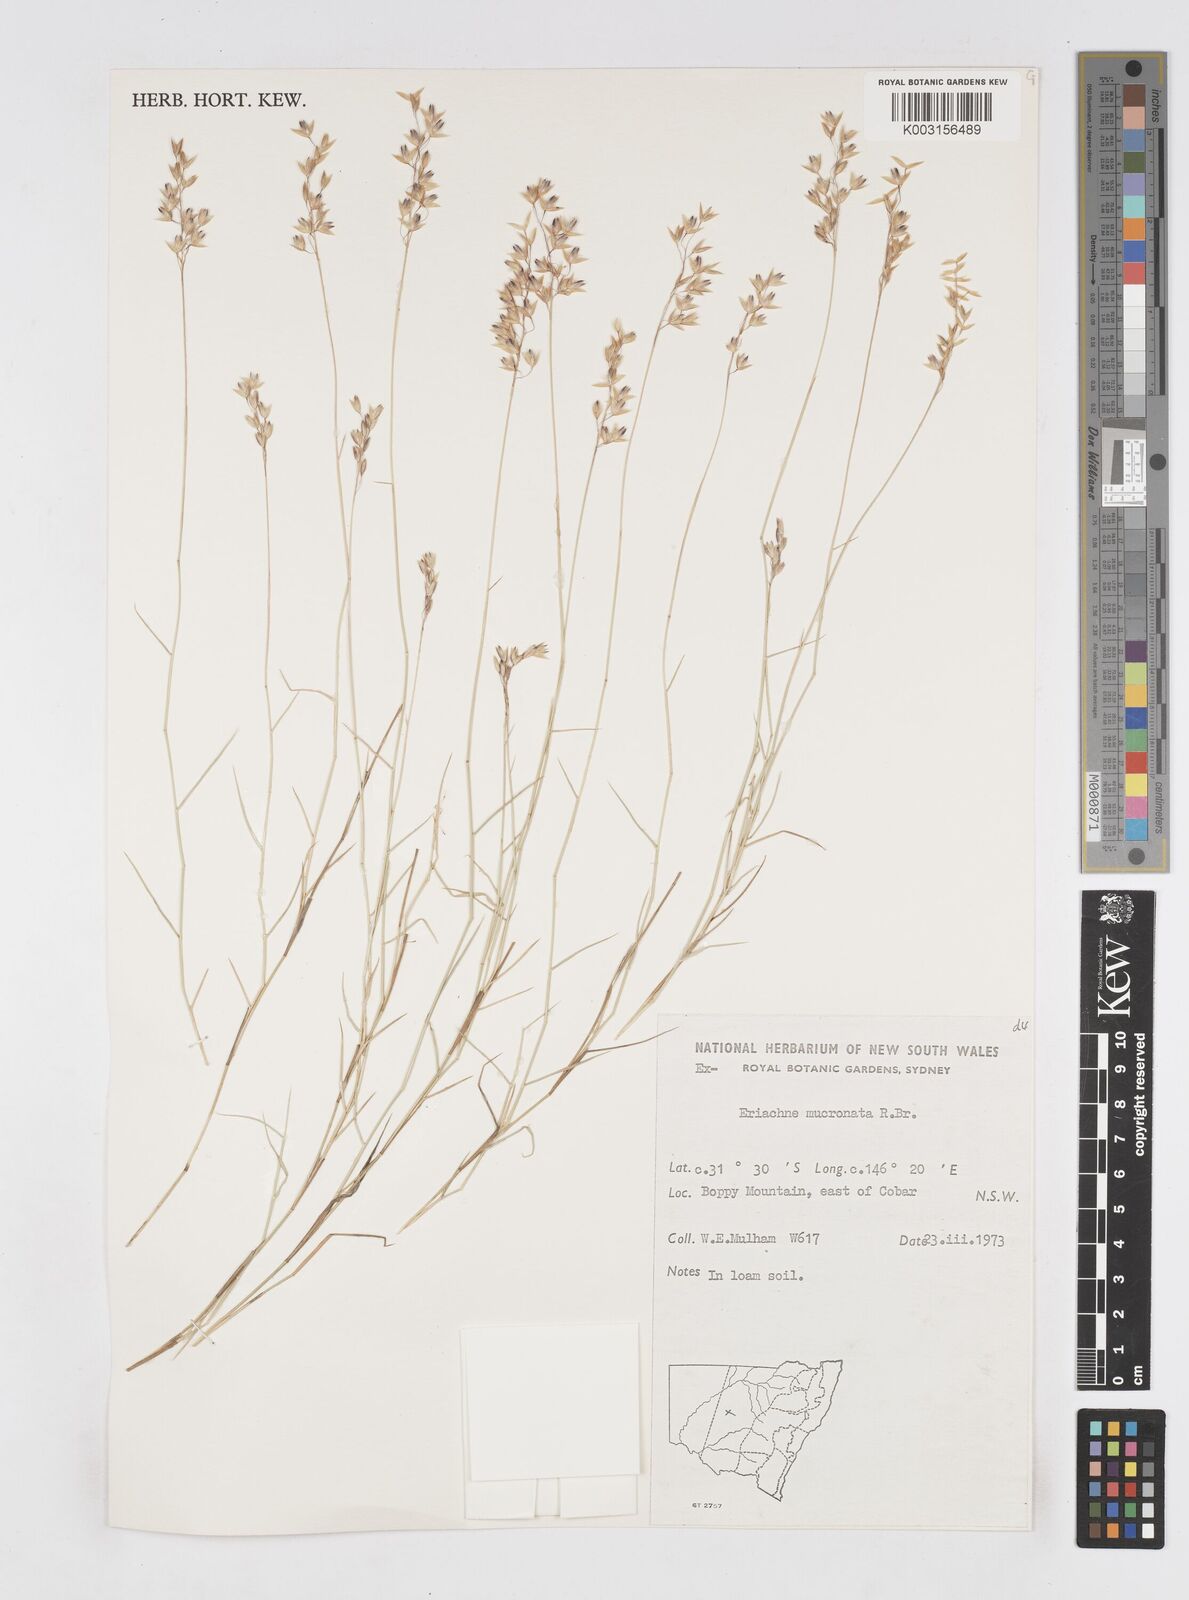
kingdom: Plantae
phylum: Tracheophyta
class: Liliopsida
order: Poales
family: Poaceae
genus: Eriachne
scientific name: Eriachne mucronata
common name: Mountain wanderrie grass
